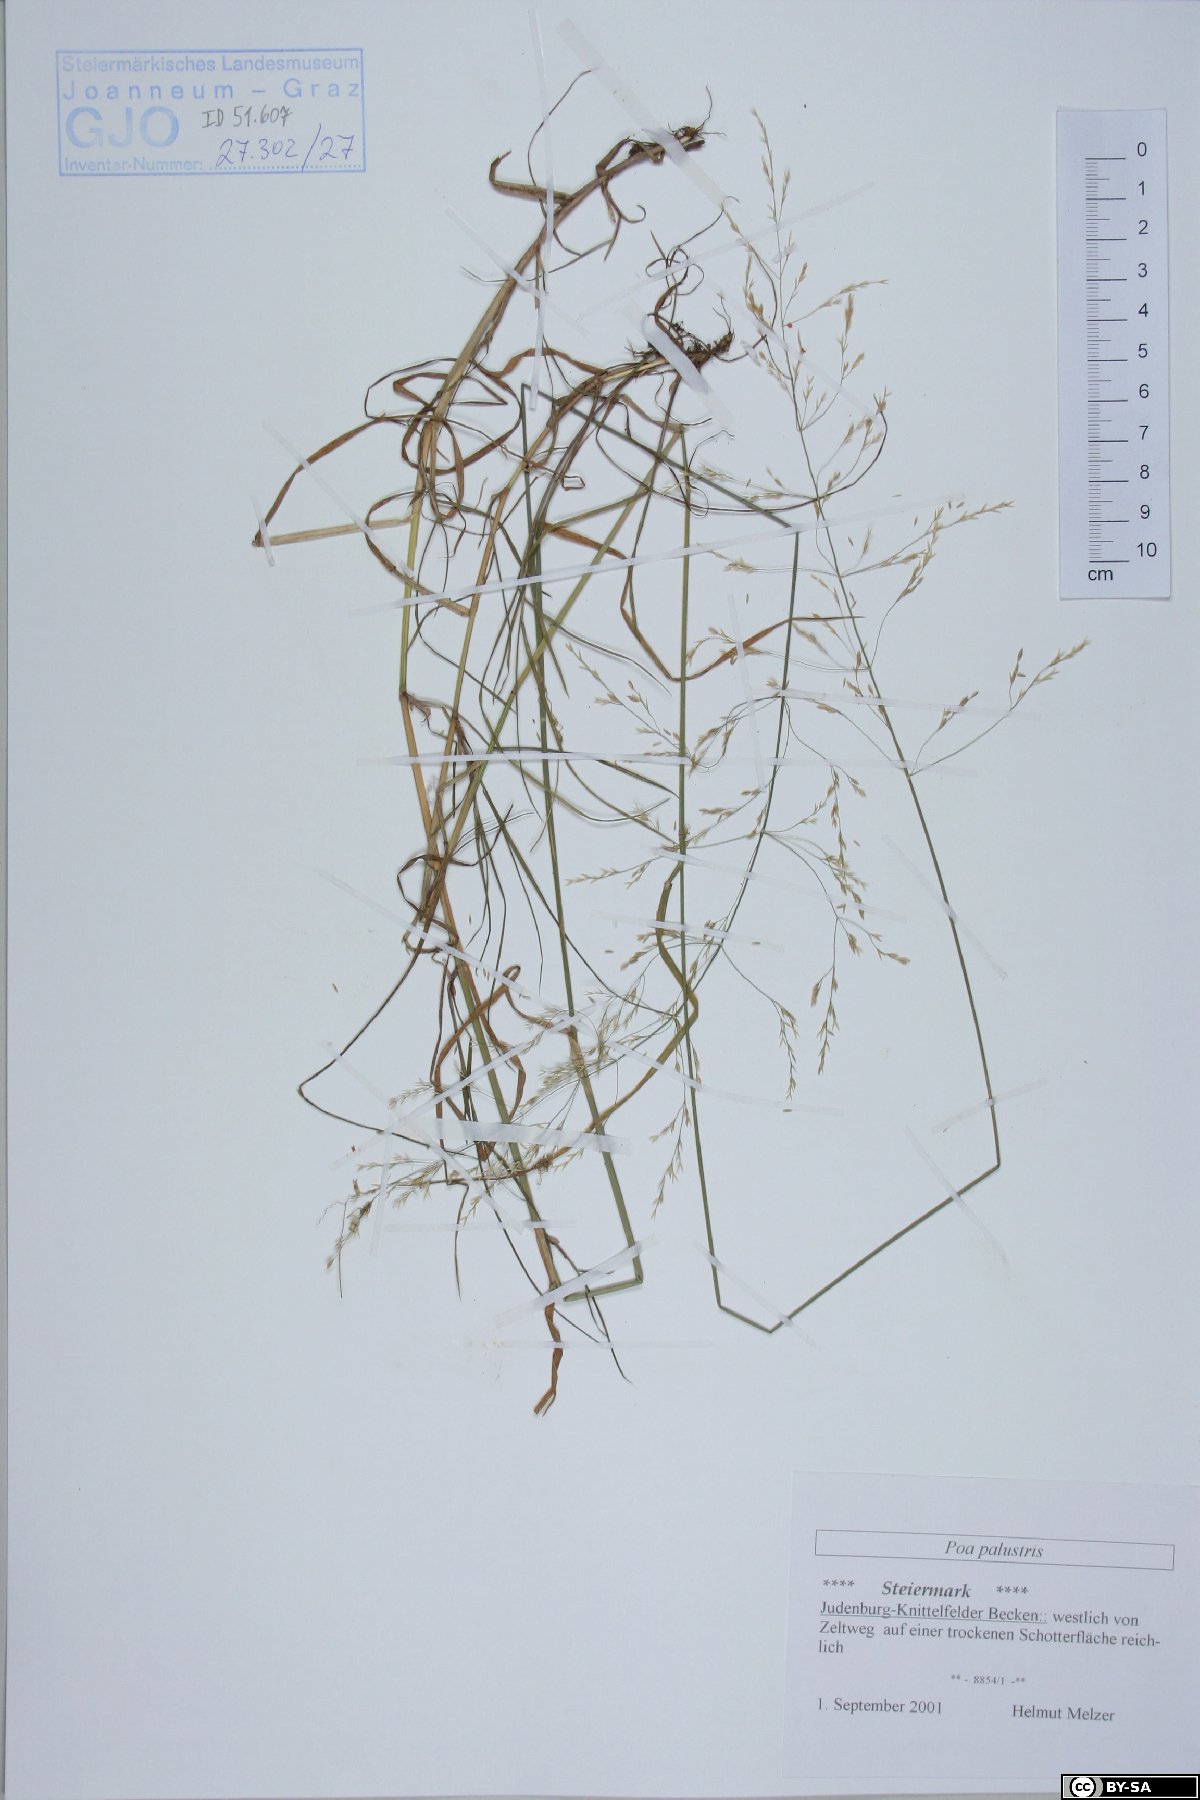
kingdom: Plantae
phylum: Tracheophyta
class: Liliopsida
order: Poales
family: Poaceae
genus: Poa
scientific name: Poa palustris
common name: Swamp meadow-grass
